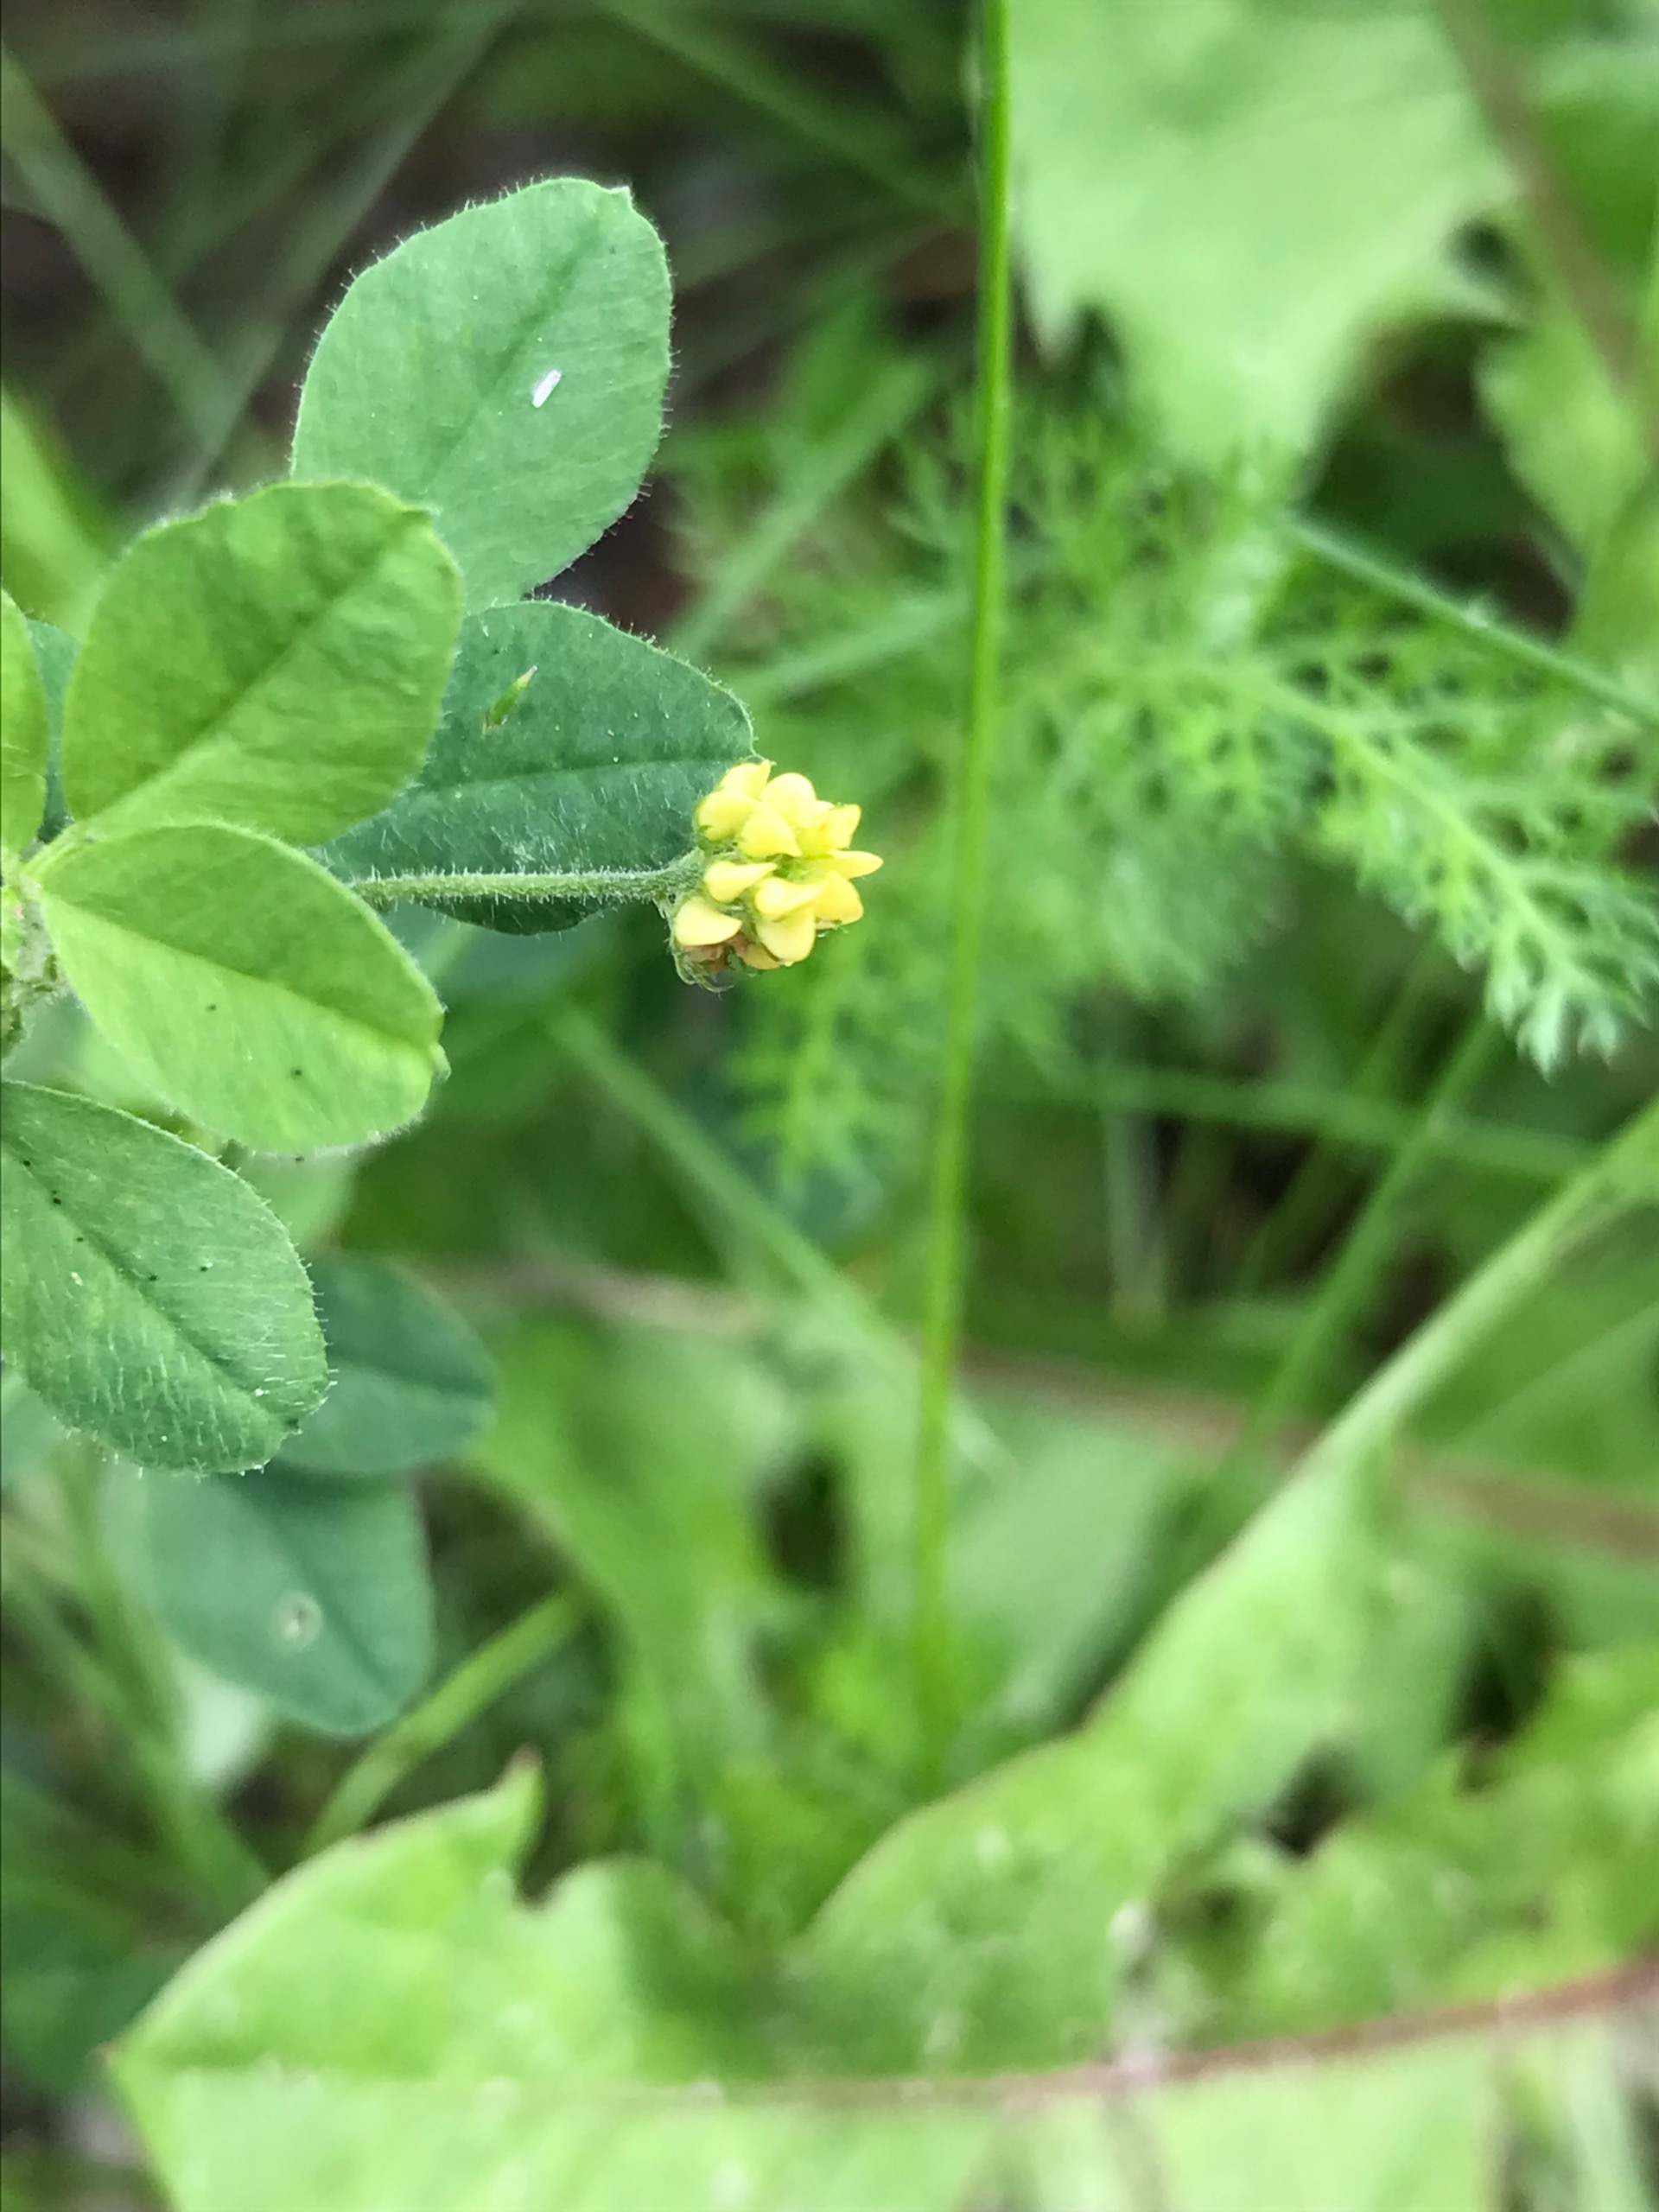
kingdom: Plantae
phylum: Tracheophyta
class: Magnoliopsida
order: Fabales
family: Fabaceae
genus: Medicago
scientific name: Medicago lupulina
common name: Humle-sneglebælg
